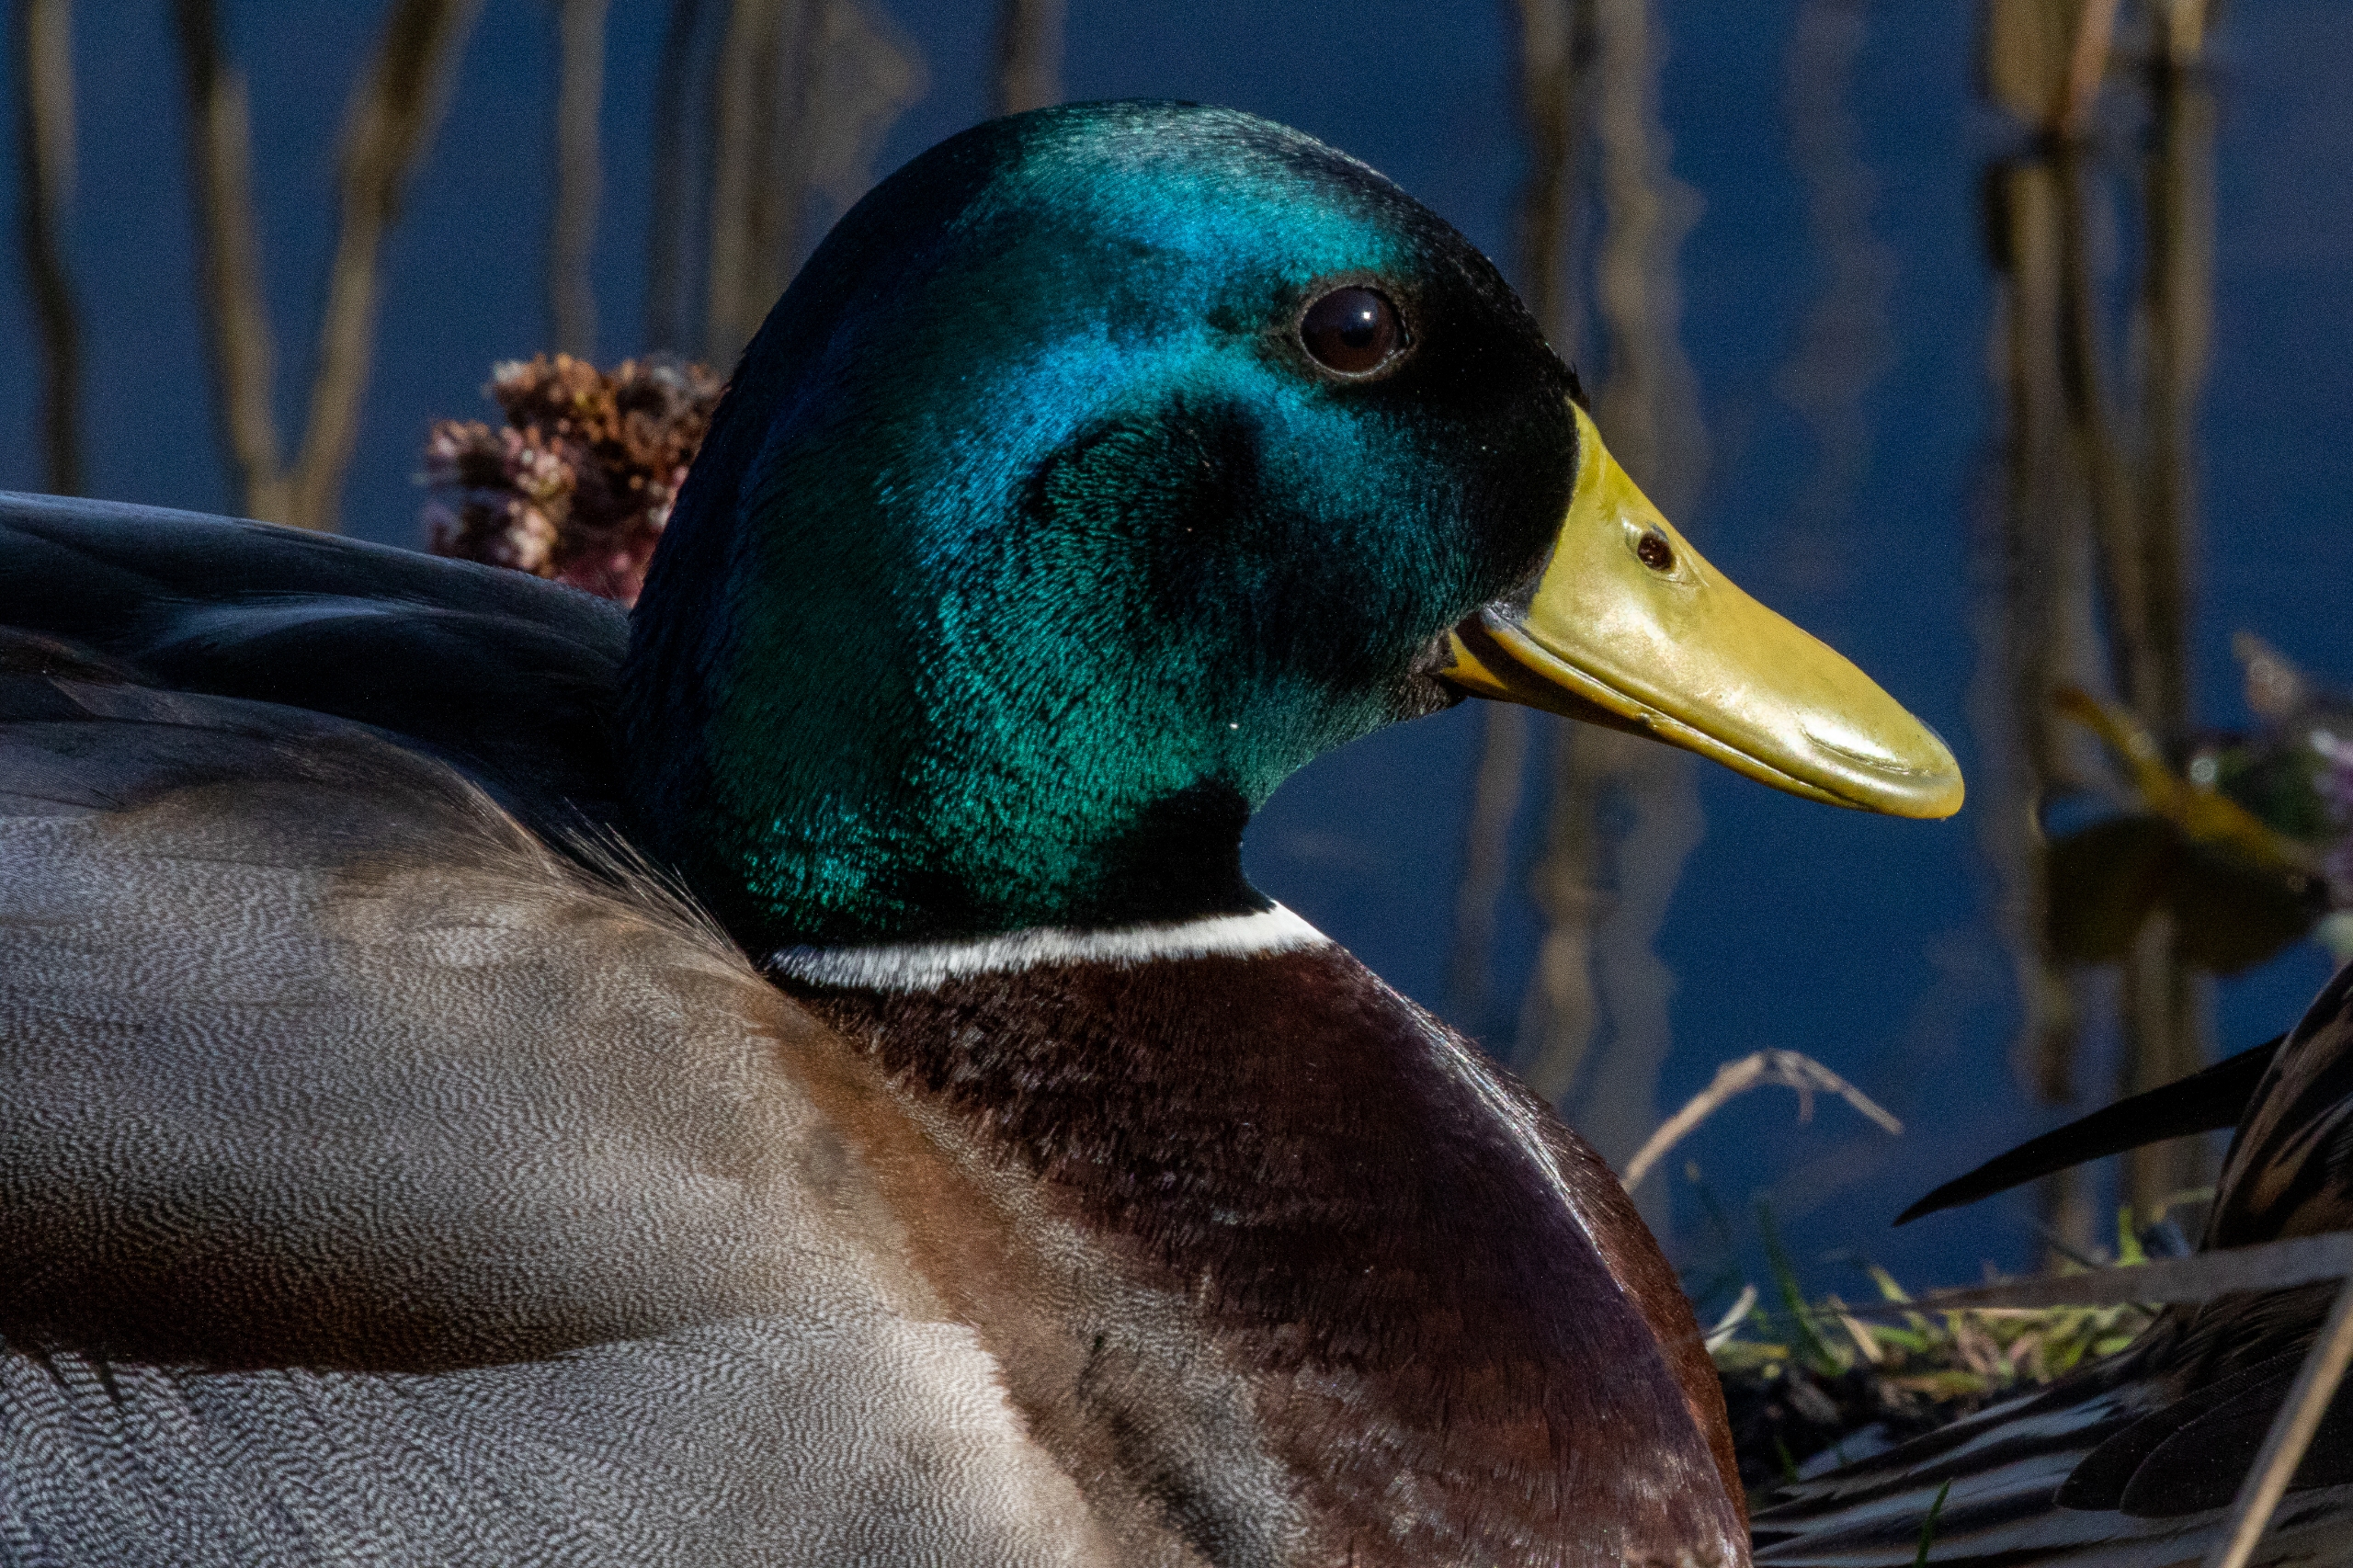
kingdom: Animalia
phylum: Chordata
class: Aves
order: Anseriformes
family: Anatidae
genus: Anas
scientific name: Anas platyrhynchos
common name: Gråand
